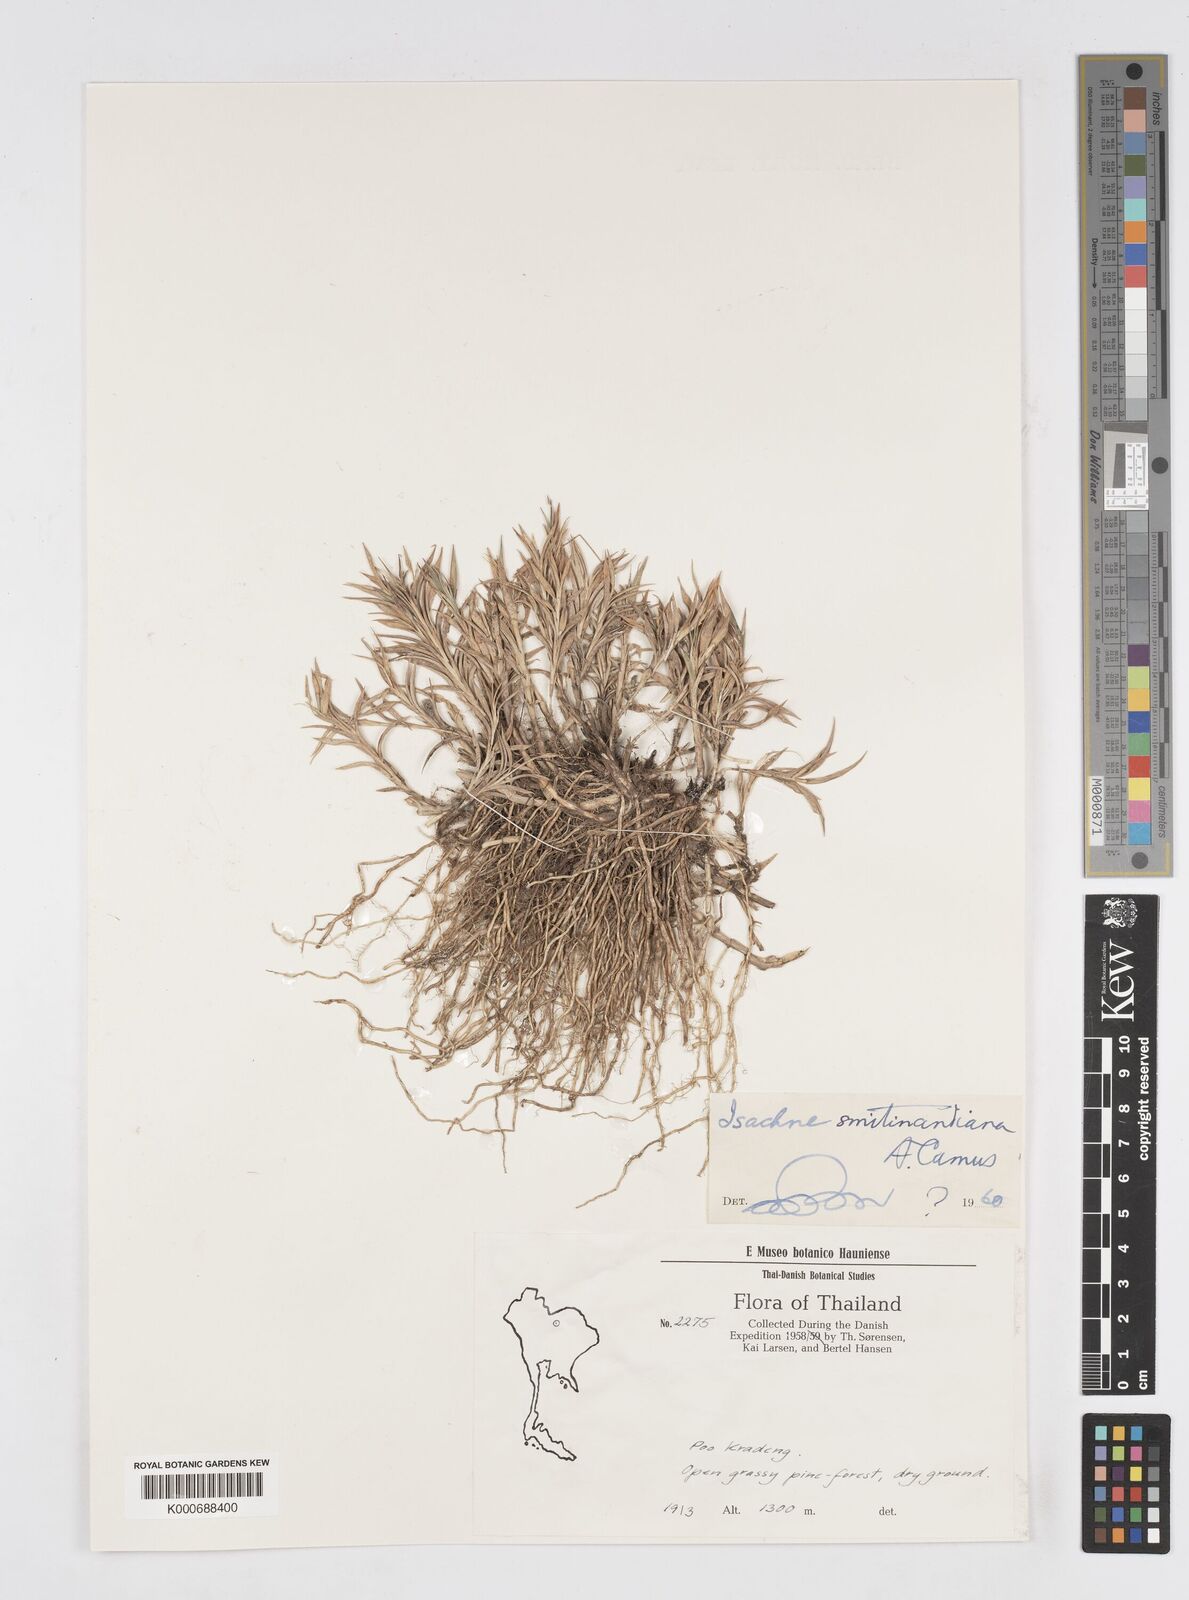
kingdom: Plantae
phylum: Tracheophyta
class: Liliopsida
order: Poales
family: Poaceae
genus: Isachne
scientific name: Isachne smitinandiana
